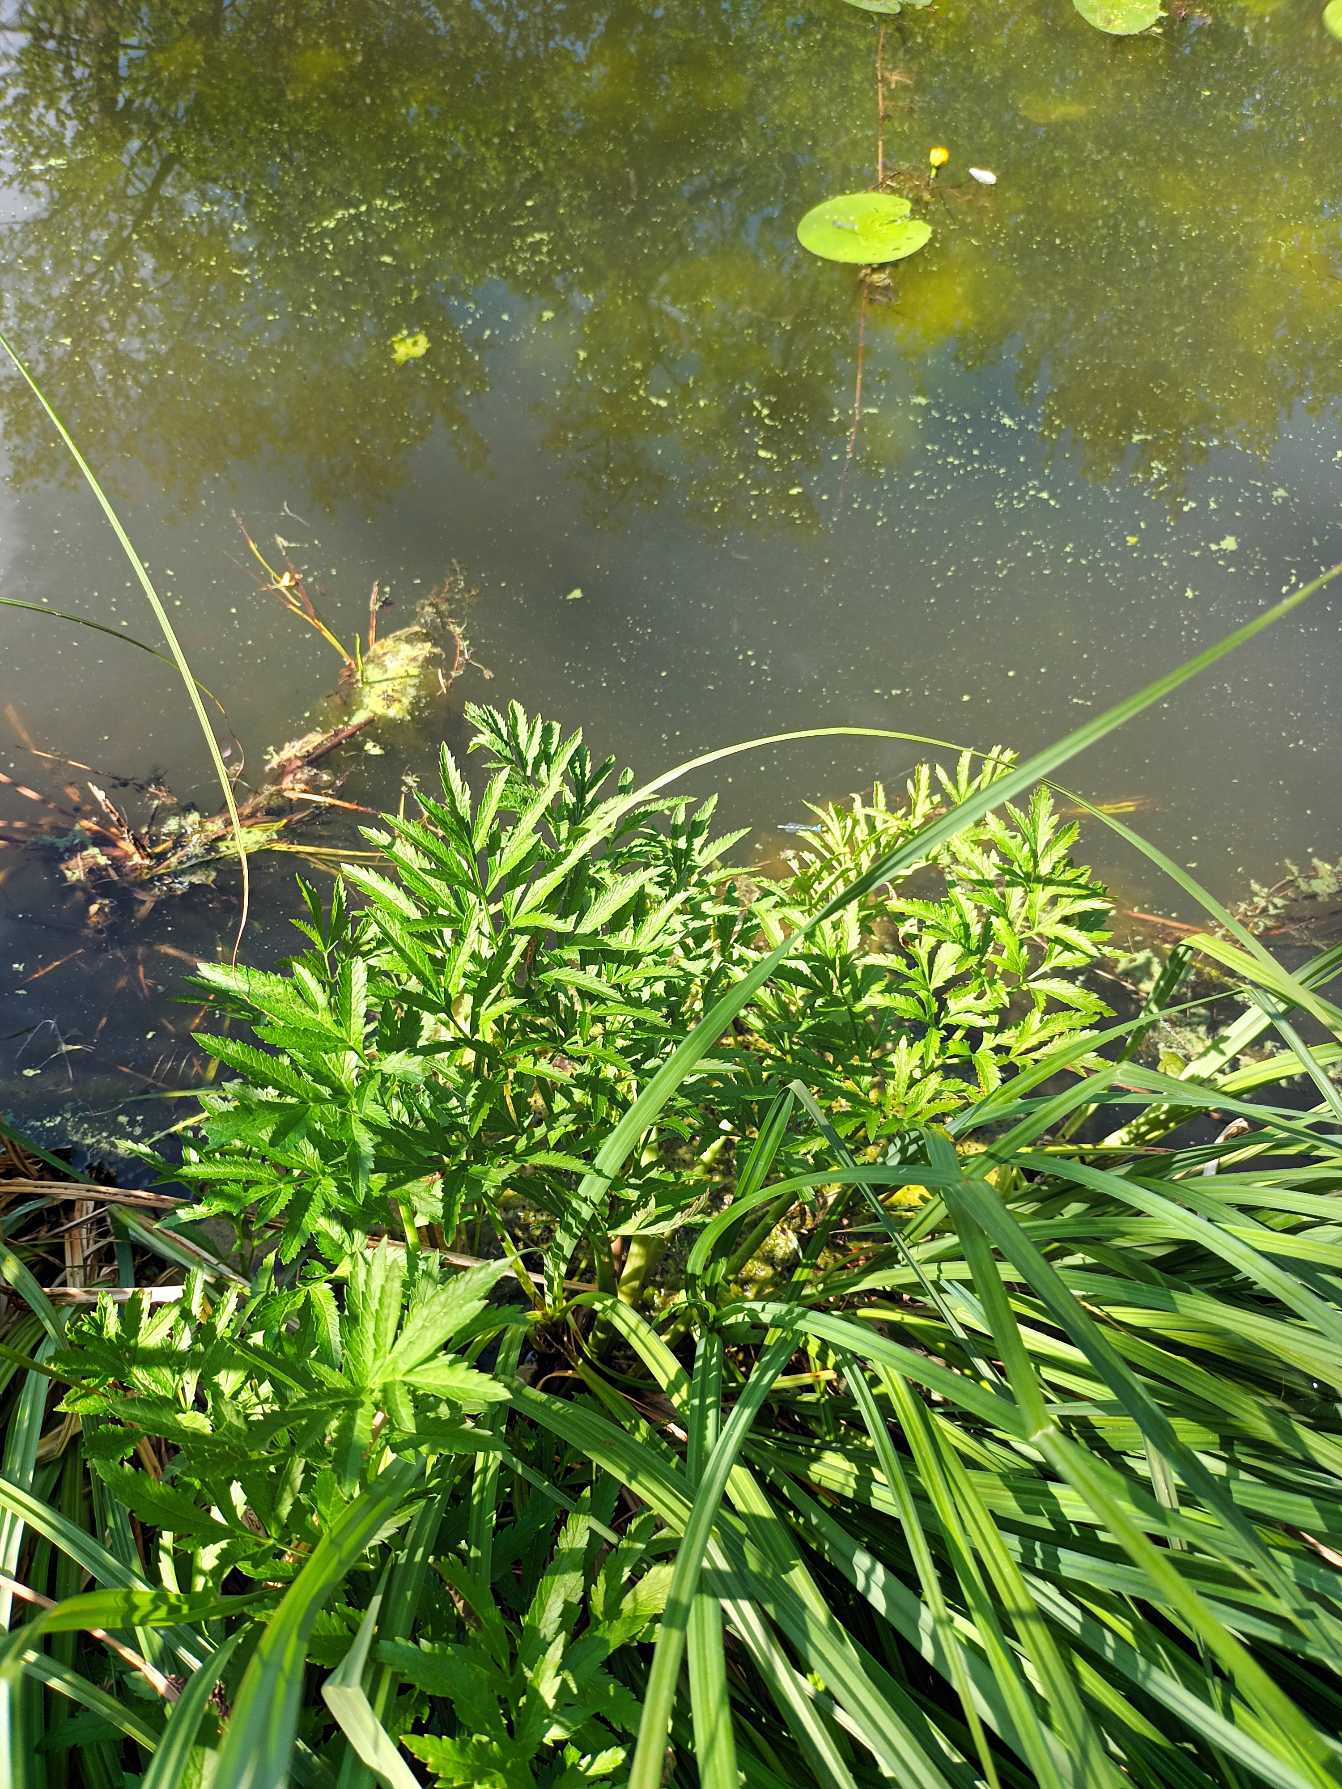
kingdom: Plantae
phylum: Tracheophyta
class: Magnoliopsida
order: Apiales
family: Apiaceae
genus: Cicuta
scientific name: Cicuta virosa
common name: Gifttyde
